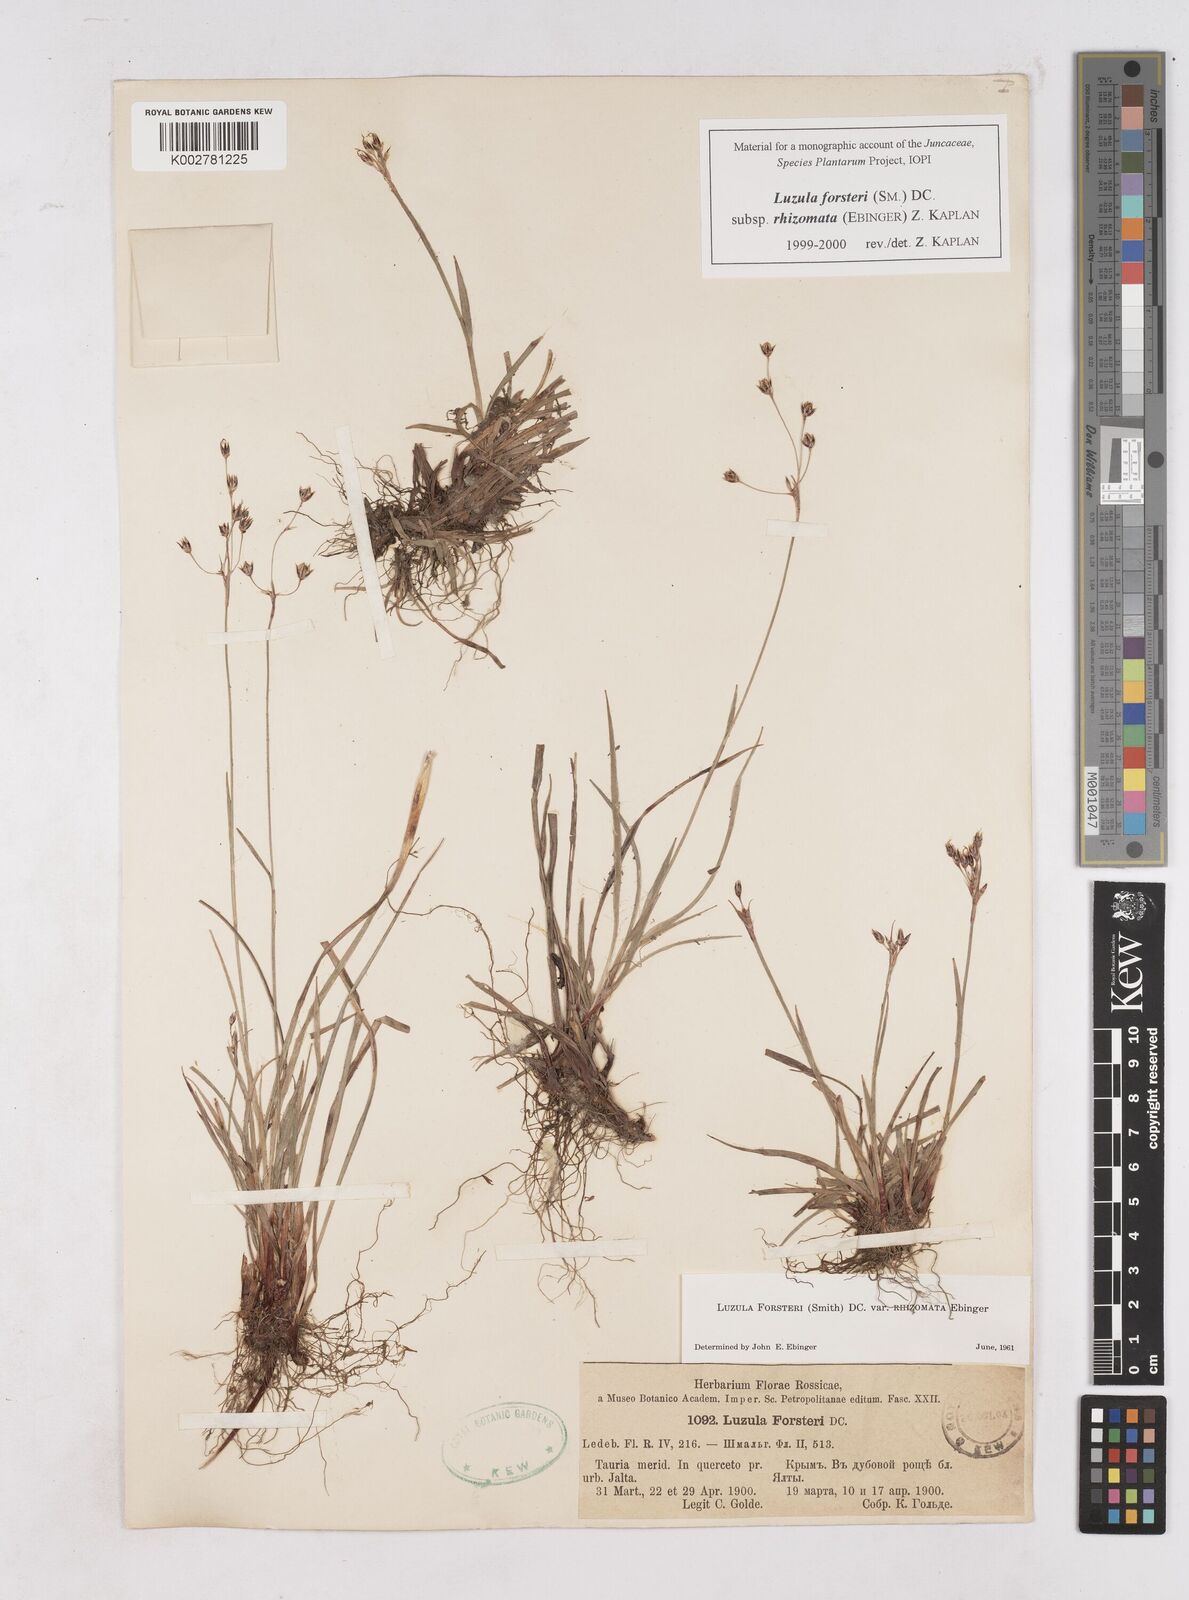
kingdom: Plantae
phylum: Tracheophyta
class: Liliopsida
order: Poales
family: Juncaceae
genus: Luzula
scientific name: Luzula forsteri
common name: Southern wood-rush
